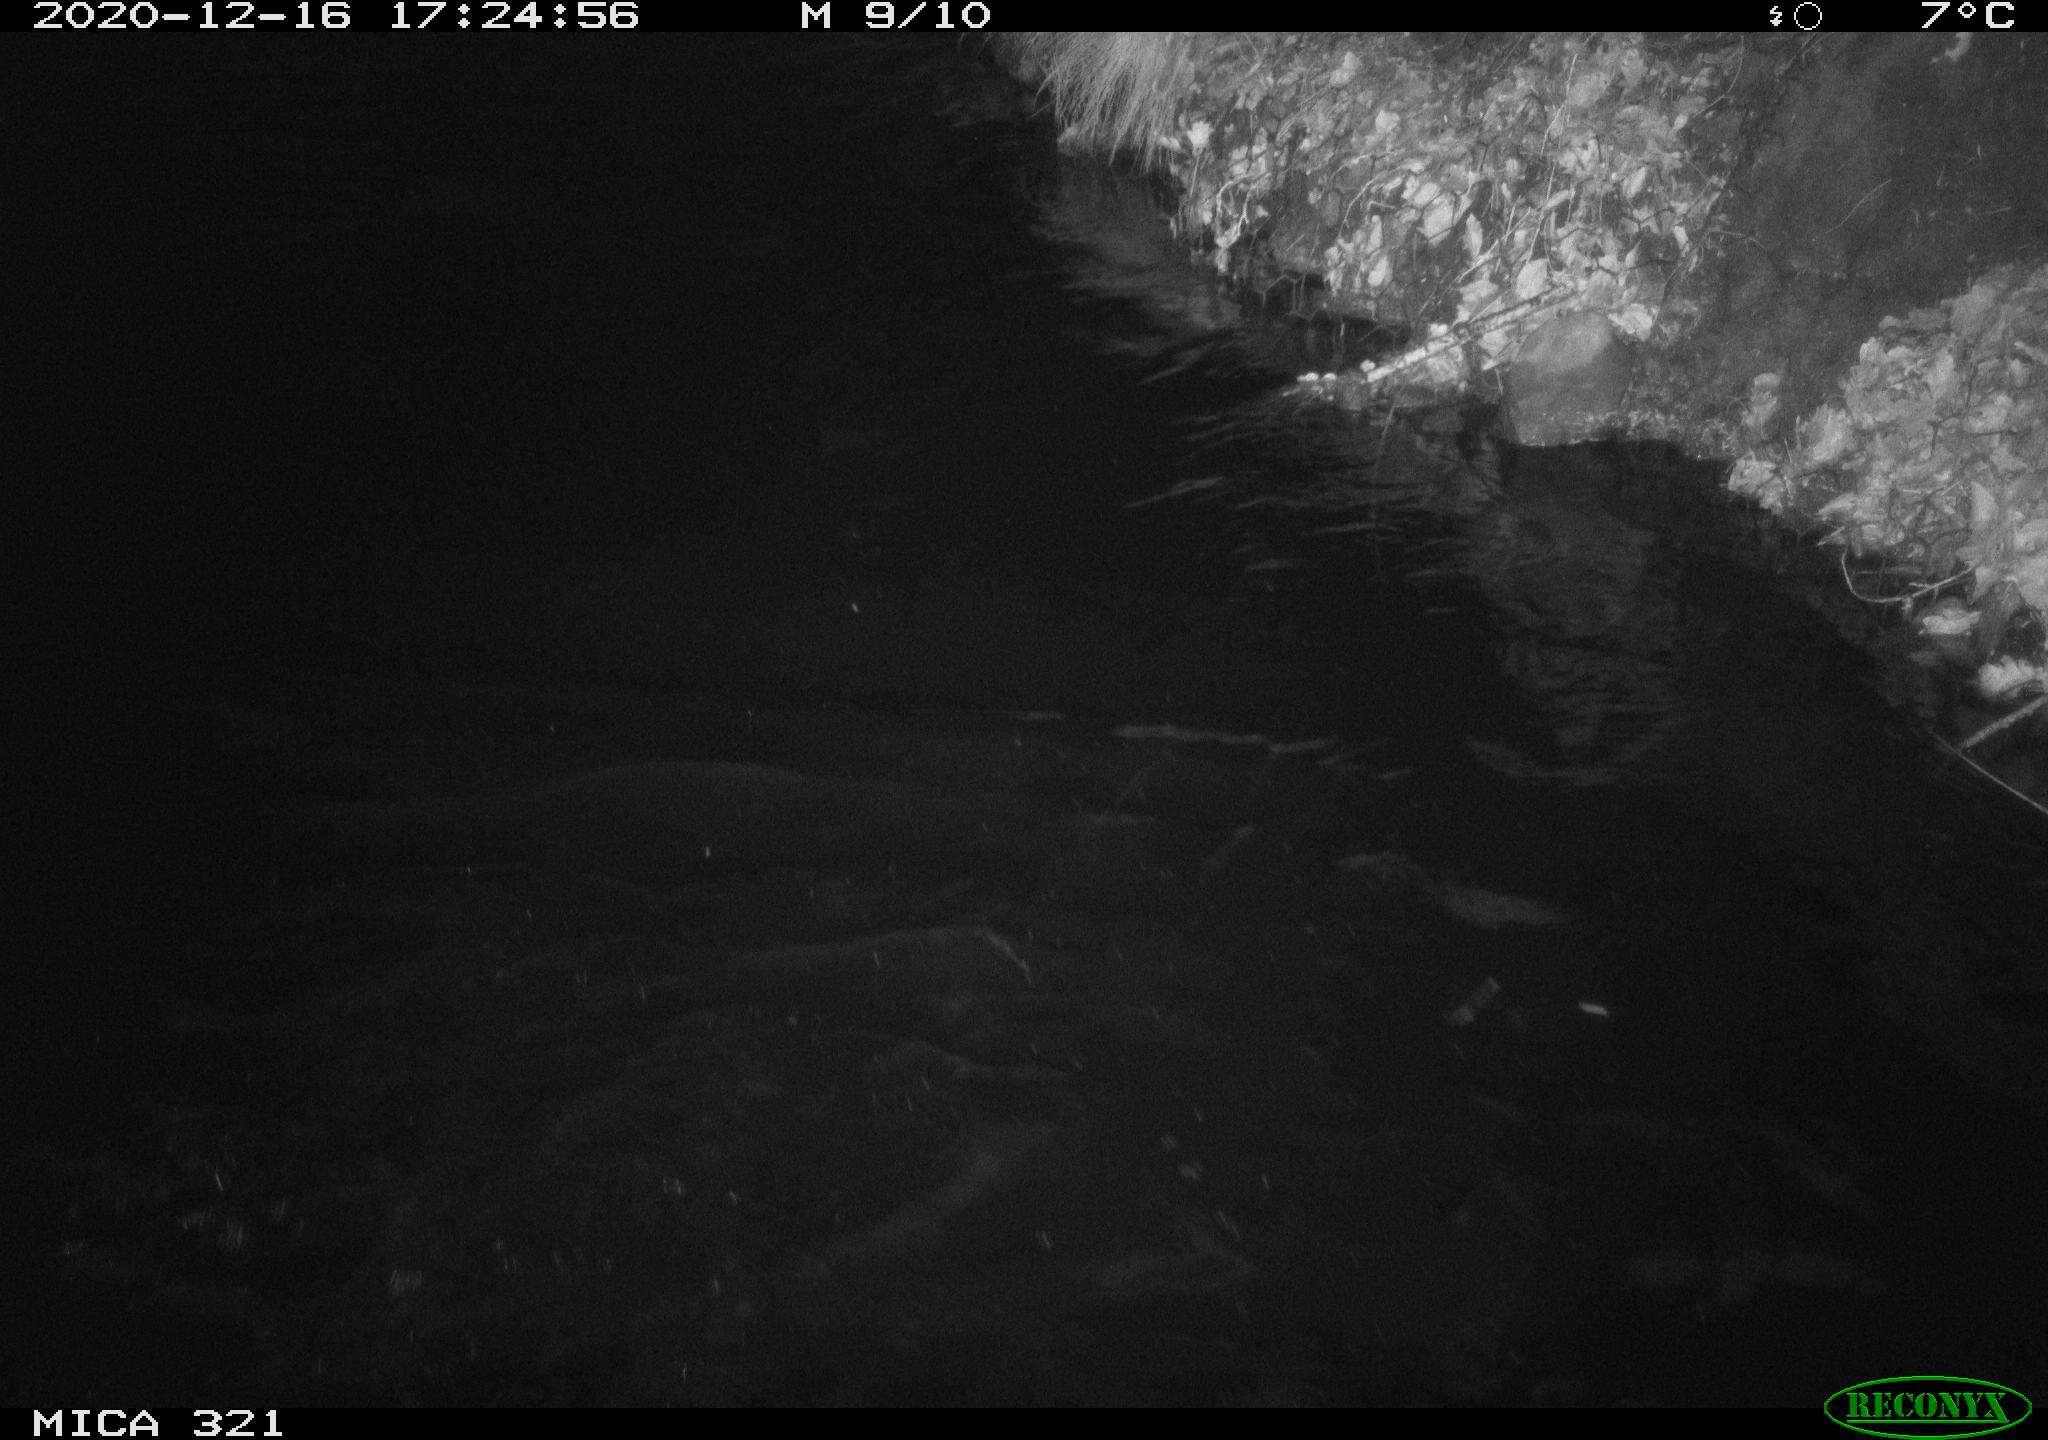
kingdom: Animalia
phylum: Chordata
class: Aves
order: Anseriformes
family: Anatidae
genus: Anas
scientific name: Anas platyrhynchos
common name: Mallard
